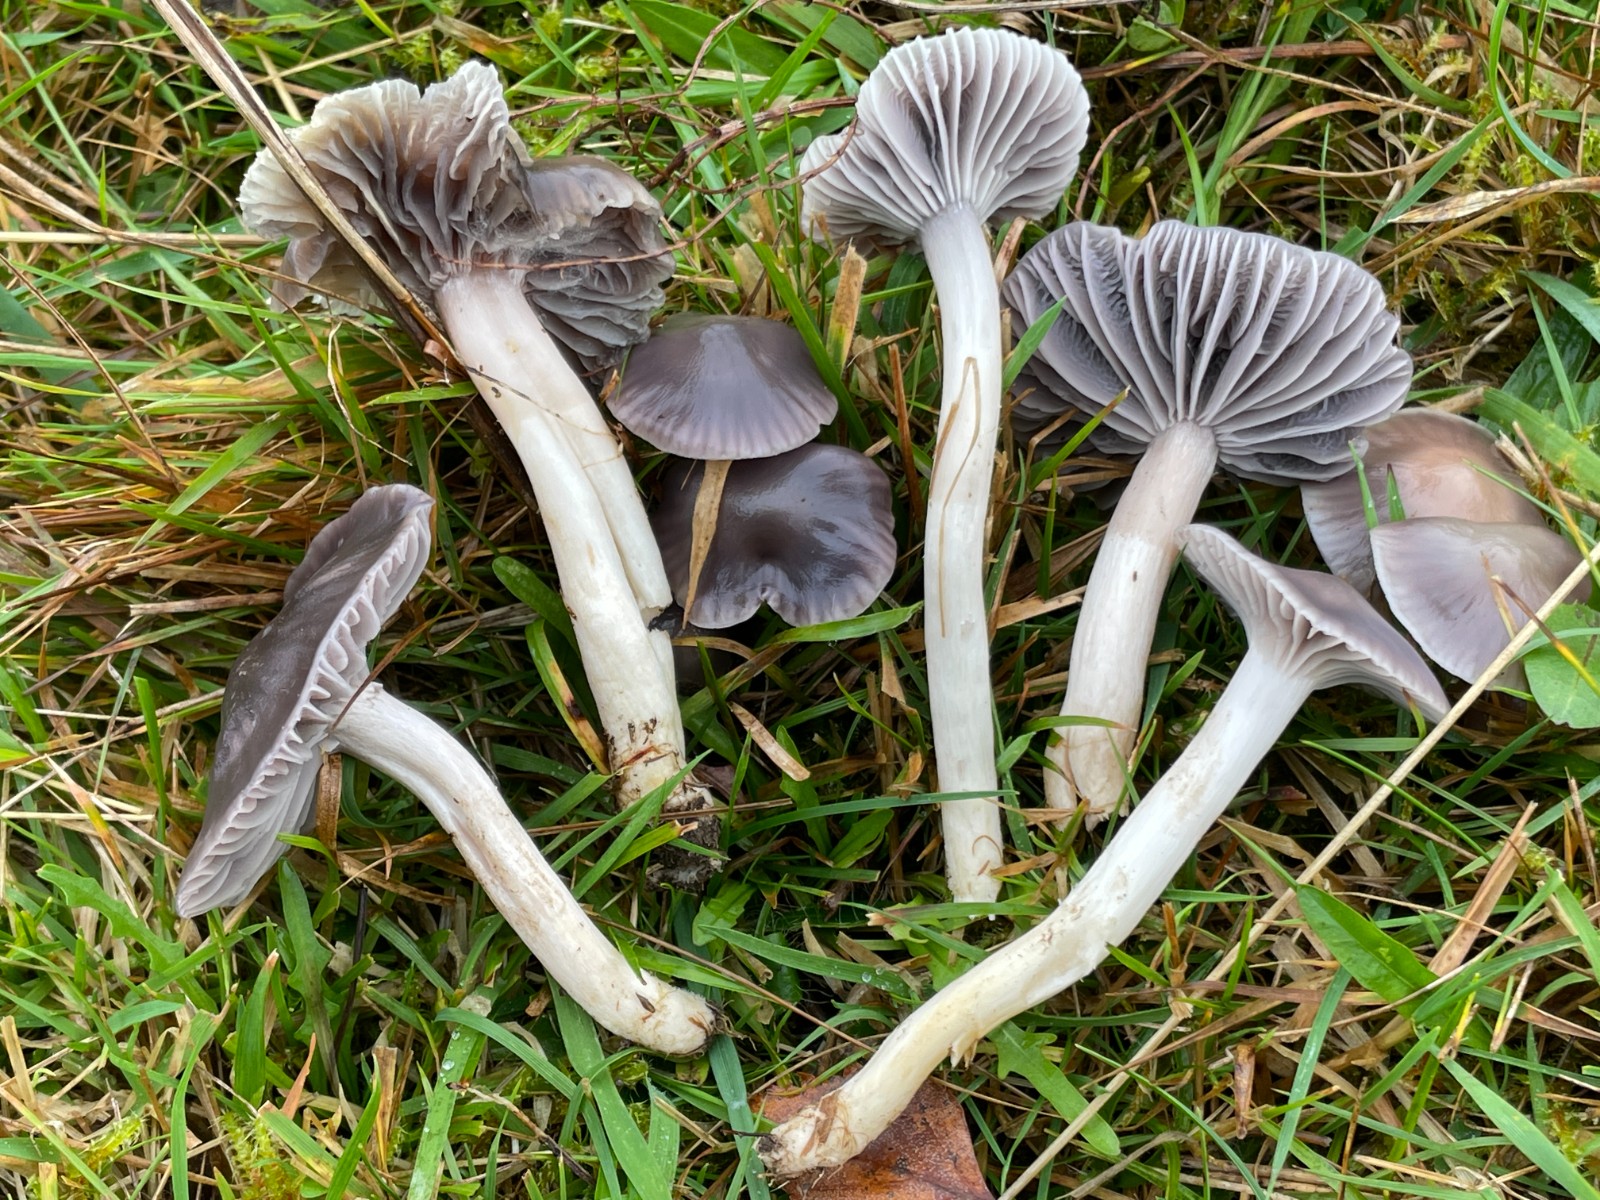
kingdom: Fungi
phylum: Basidiomycota
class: Agaricomycetes
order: Agaricales
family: Hygrophoraceae
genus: Cuphophyllus
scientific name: Cuphophyllus lacmus
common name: gråviolet vokshat
